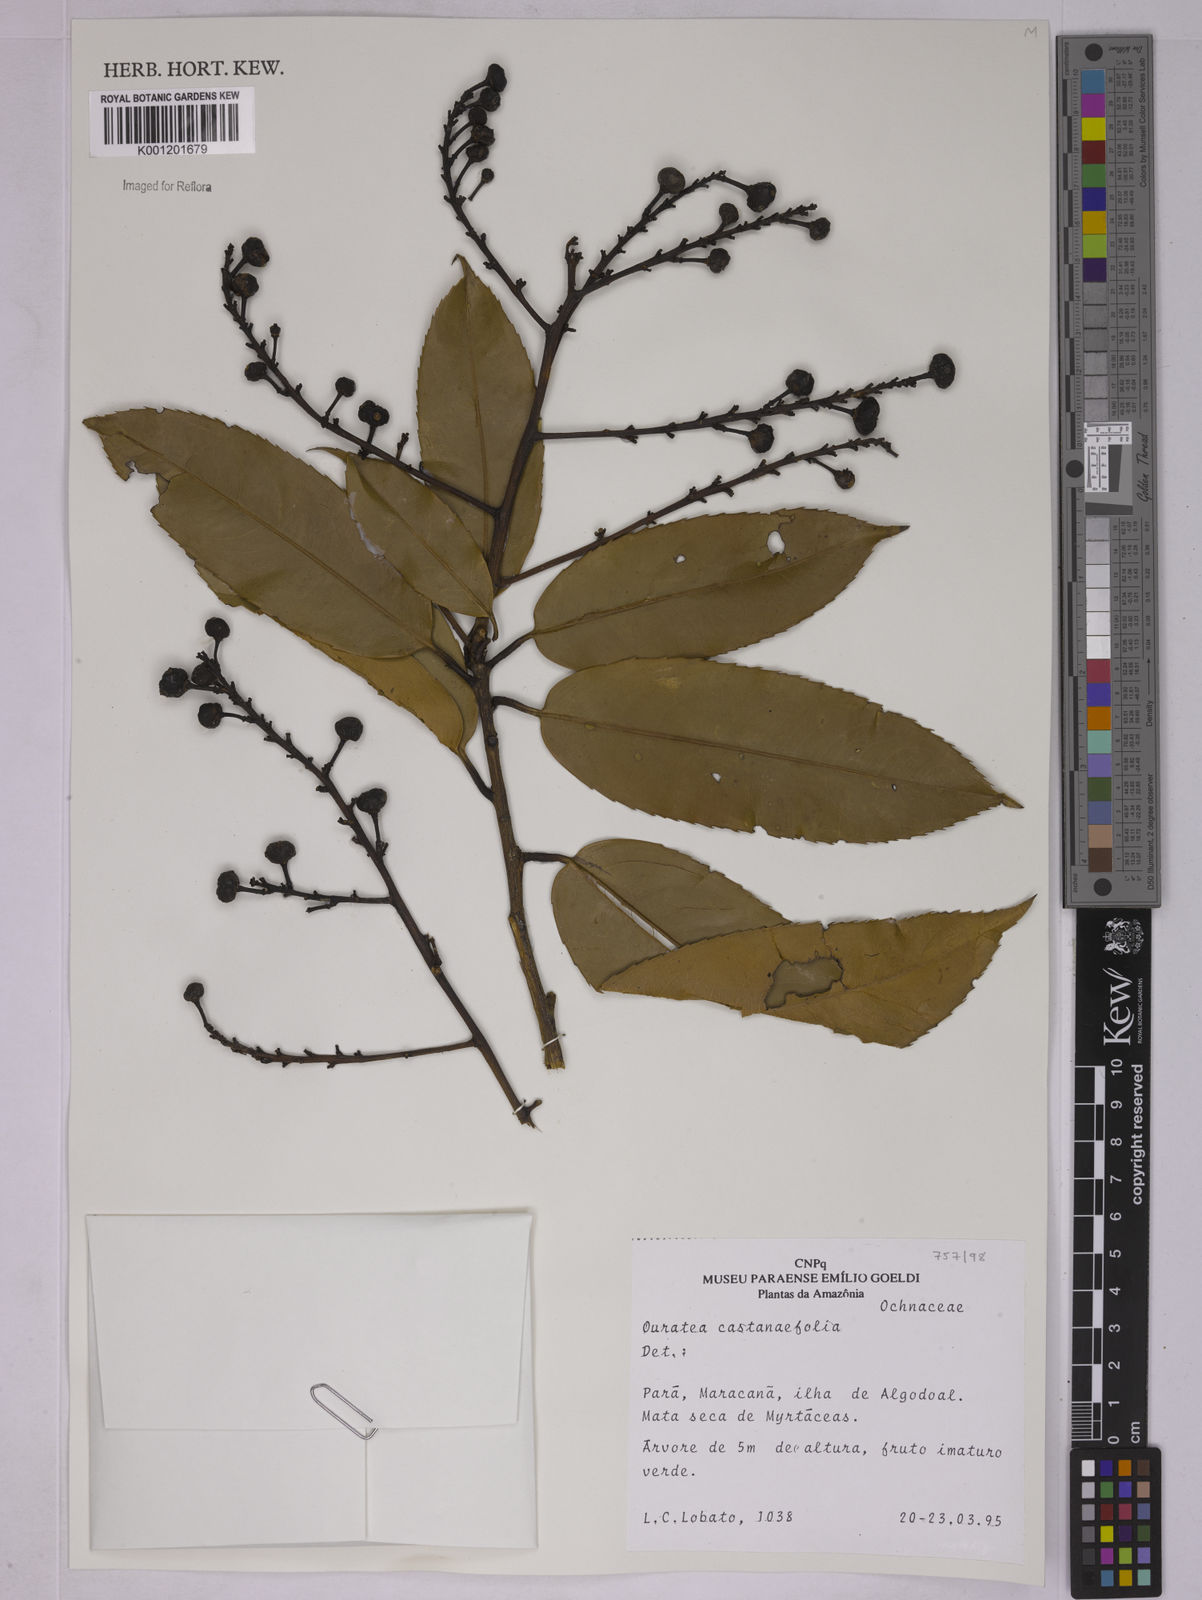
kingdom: Plantae
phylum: Tracheophyta
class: Magnoliopsida
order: Malpighiales
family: Ochnaceae
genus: Ouratea
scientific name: Ouratea castaneifolia
